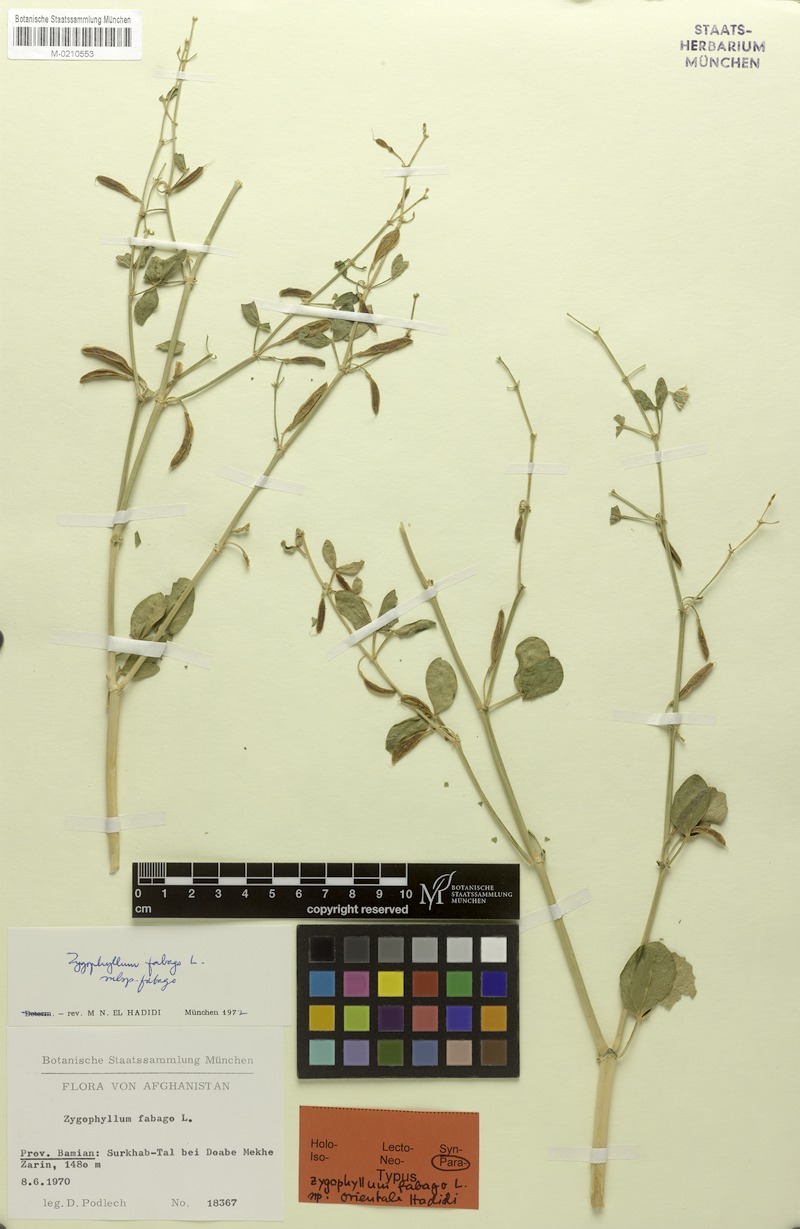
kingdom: Plantae
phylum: Tracheophyta
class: Magnoliopsida
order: Zygophyllales
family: Zygophyllaceae
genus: Zygophyllum
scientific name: Zygophyllum fabago
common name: Syrian beancaper
